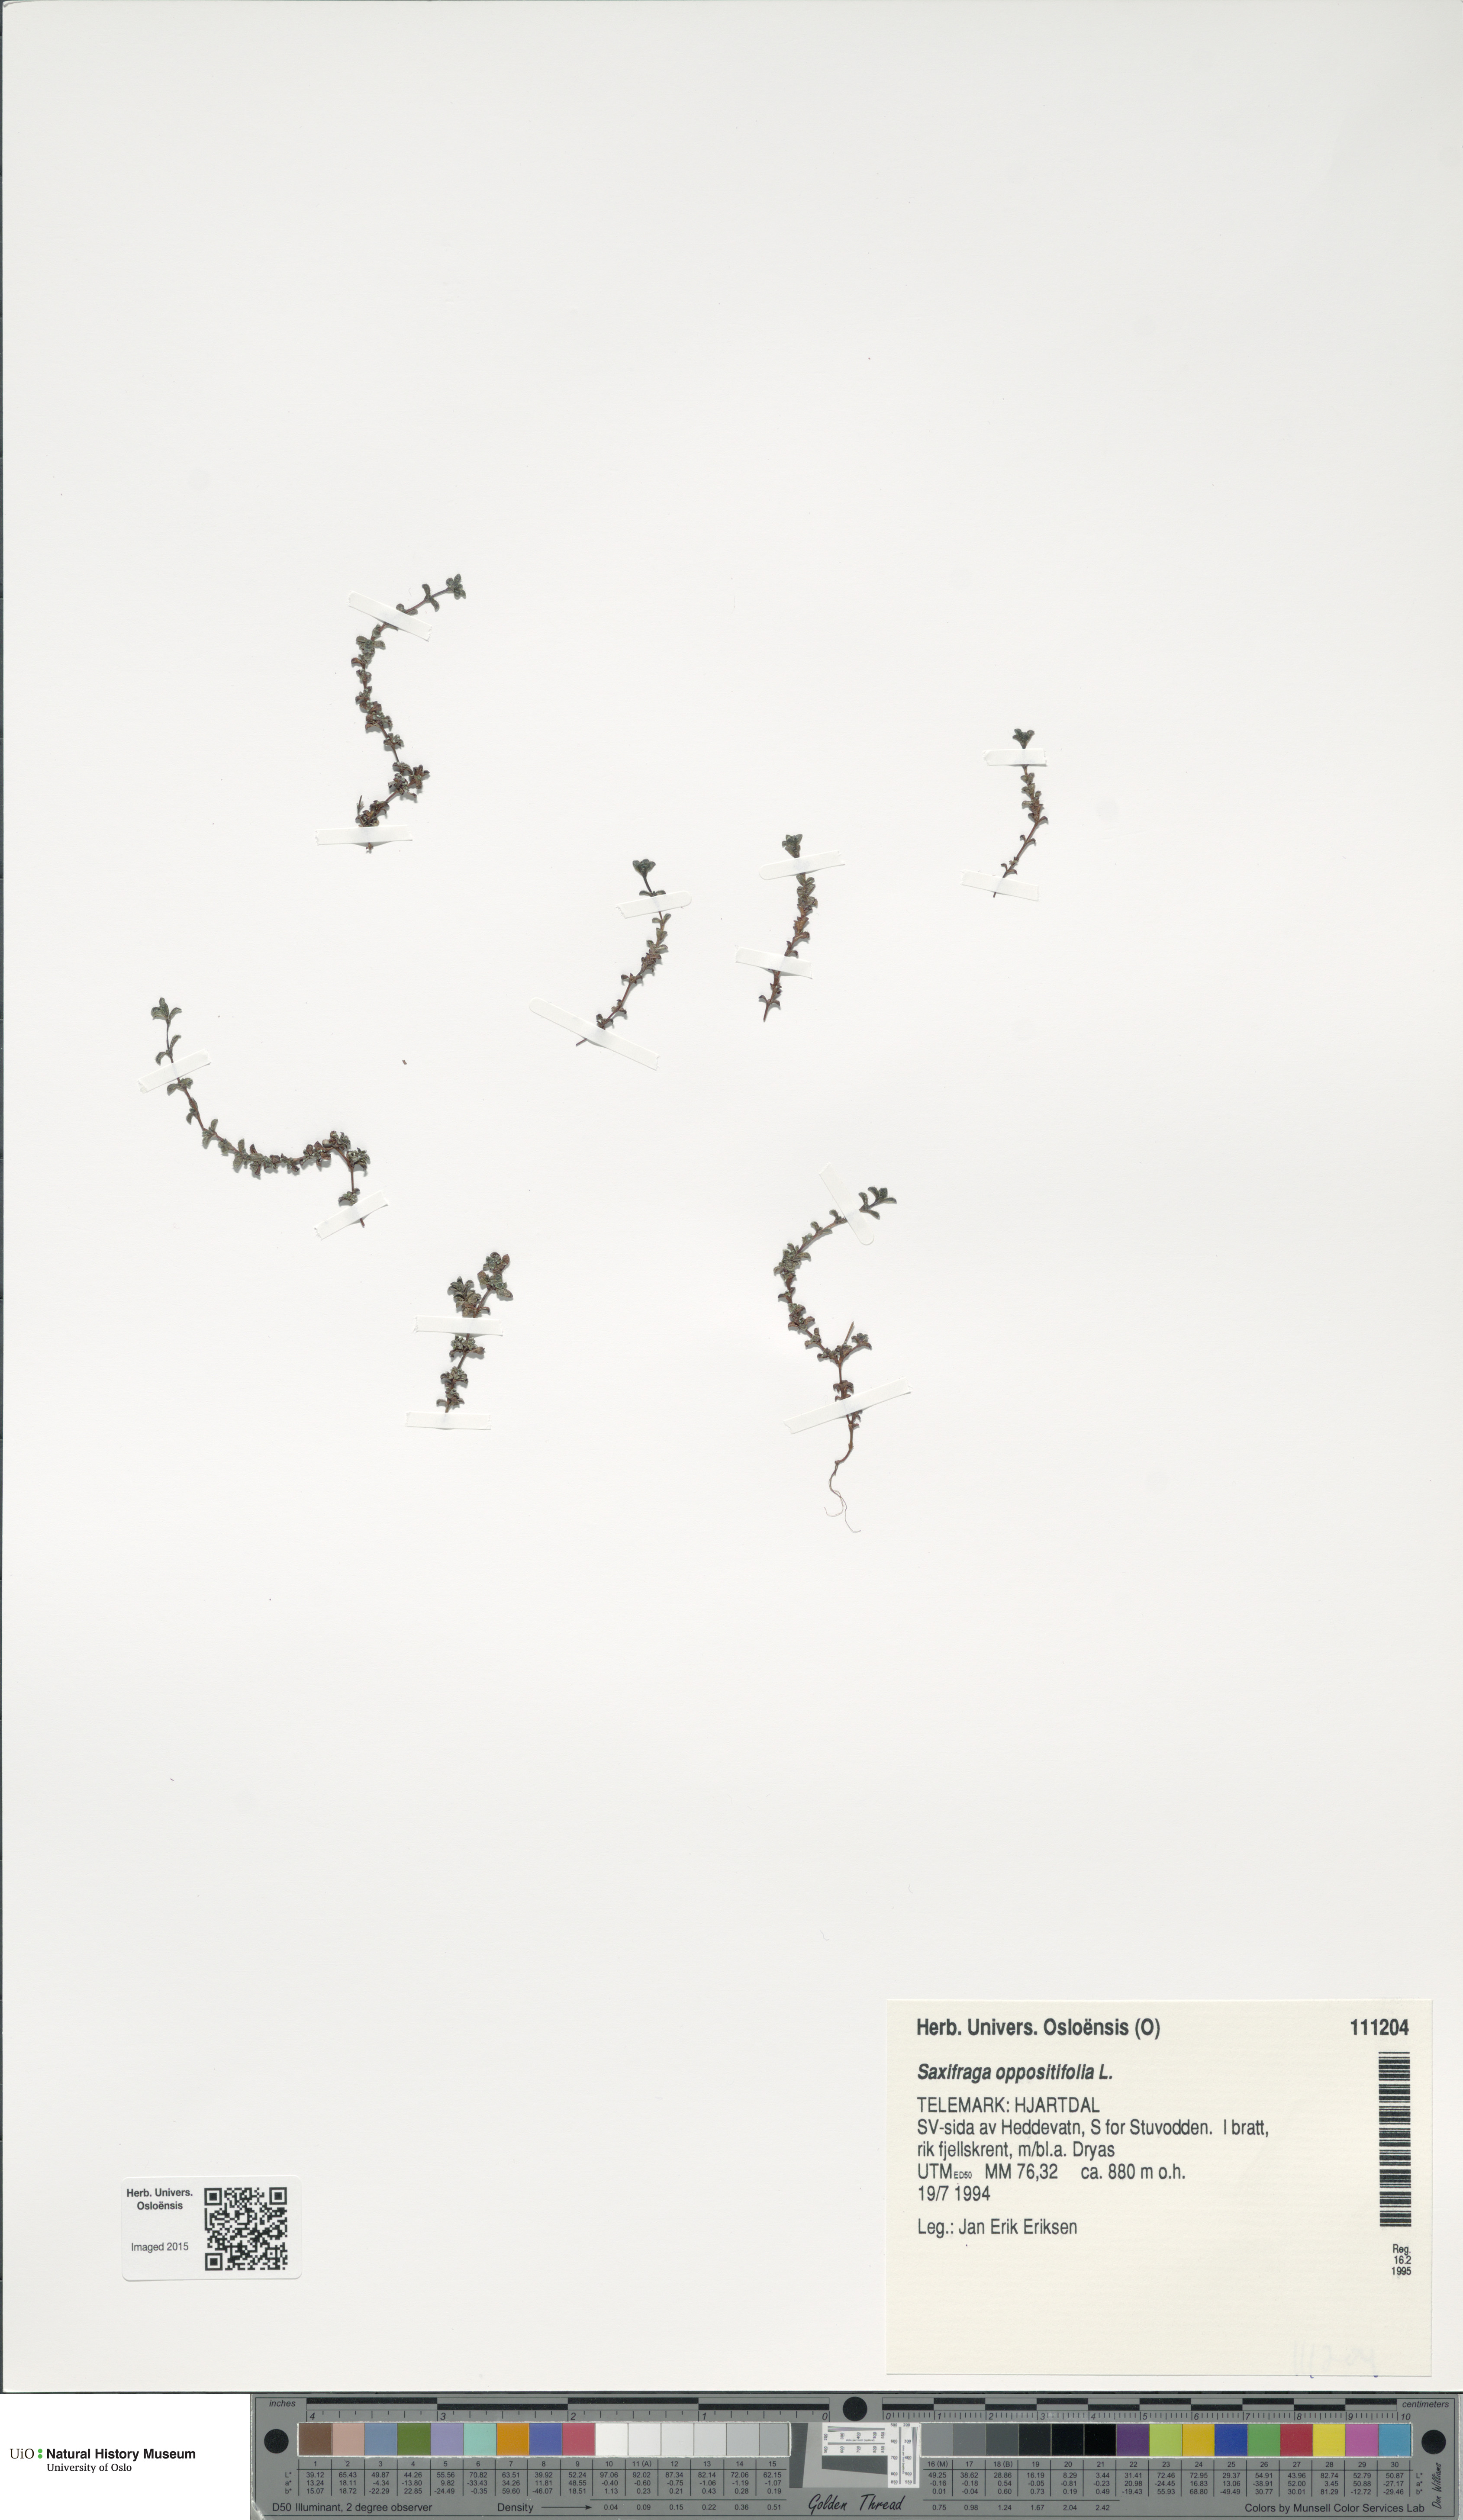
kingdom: Plantae
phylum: Tracheophyta
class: Magnoliopsida
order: Saxifragales
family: Saxifragaceae
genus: Saxifraga
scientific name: Saxifraga oppositifolia
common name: Purple saxifrage
